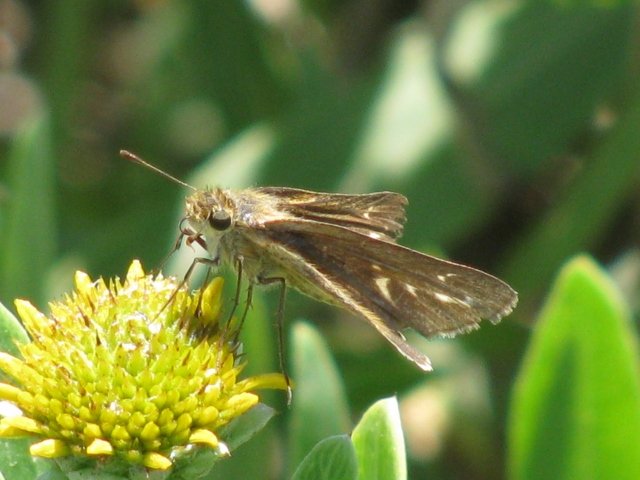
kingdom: Animalia
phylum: Arthropoda
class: Insecta
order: Lepidoptera
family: Hesperiidae
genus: Panoquina
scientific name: Panoquina panoquin
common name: Salt Marsh Skipper
